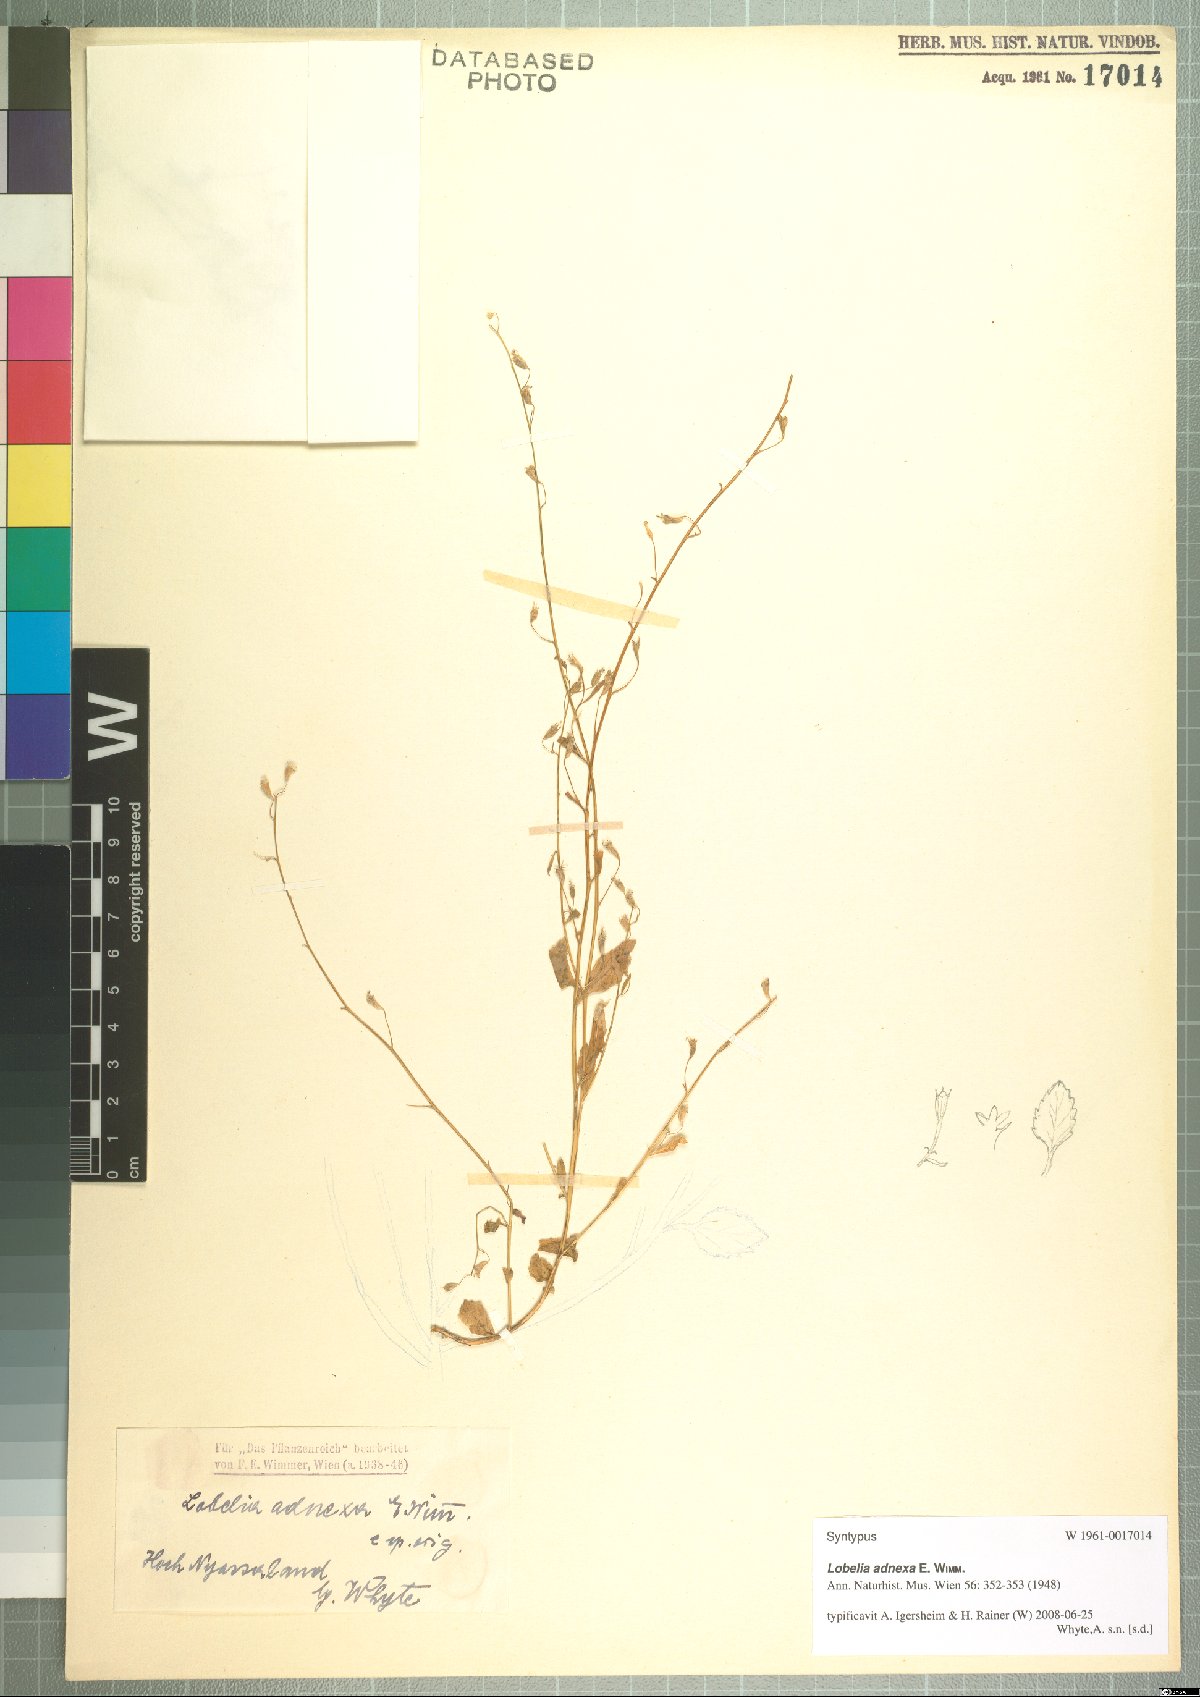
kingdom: Plantae
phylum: Tracheophyta
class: Magnoliopsida
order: Asterales
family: Campanulaceae
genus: Lobelia
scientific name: Lobelia adnexa
